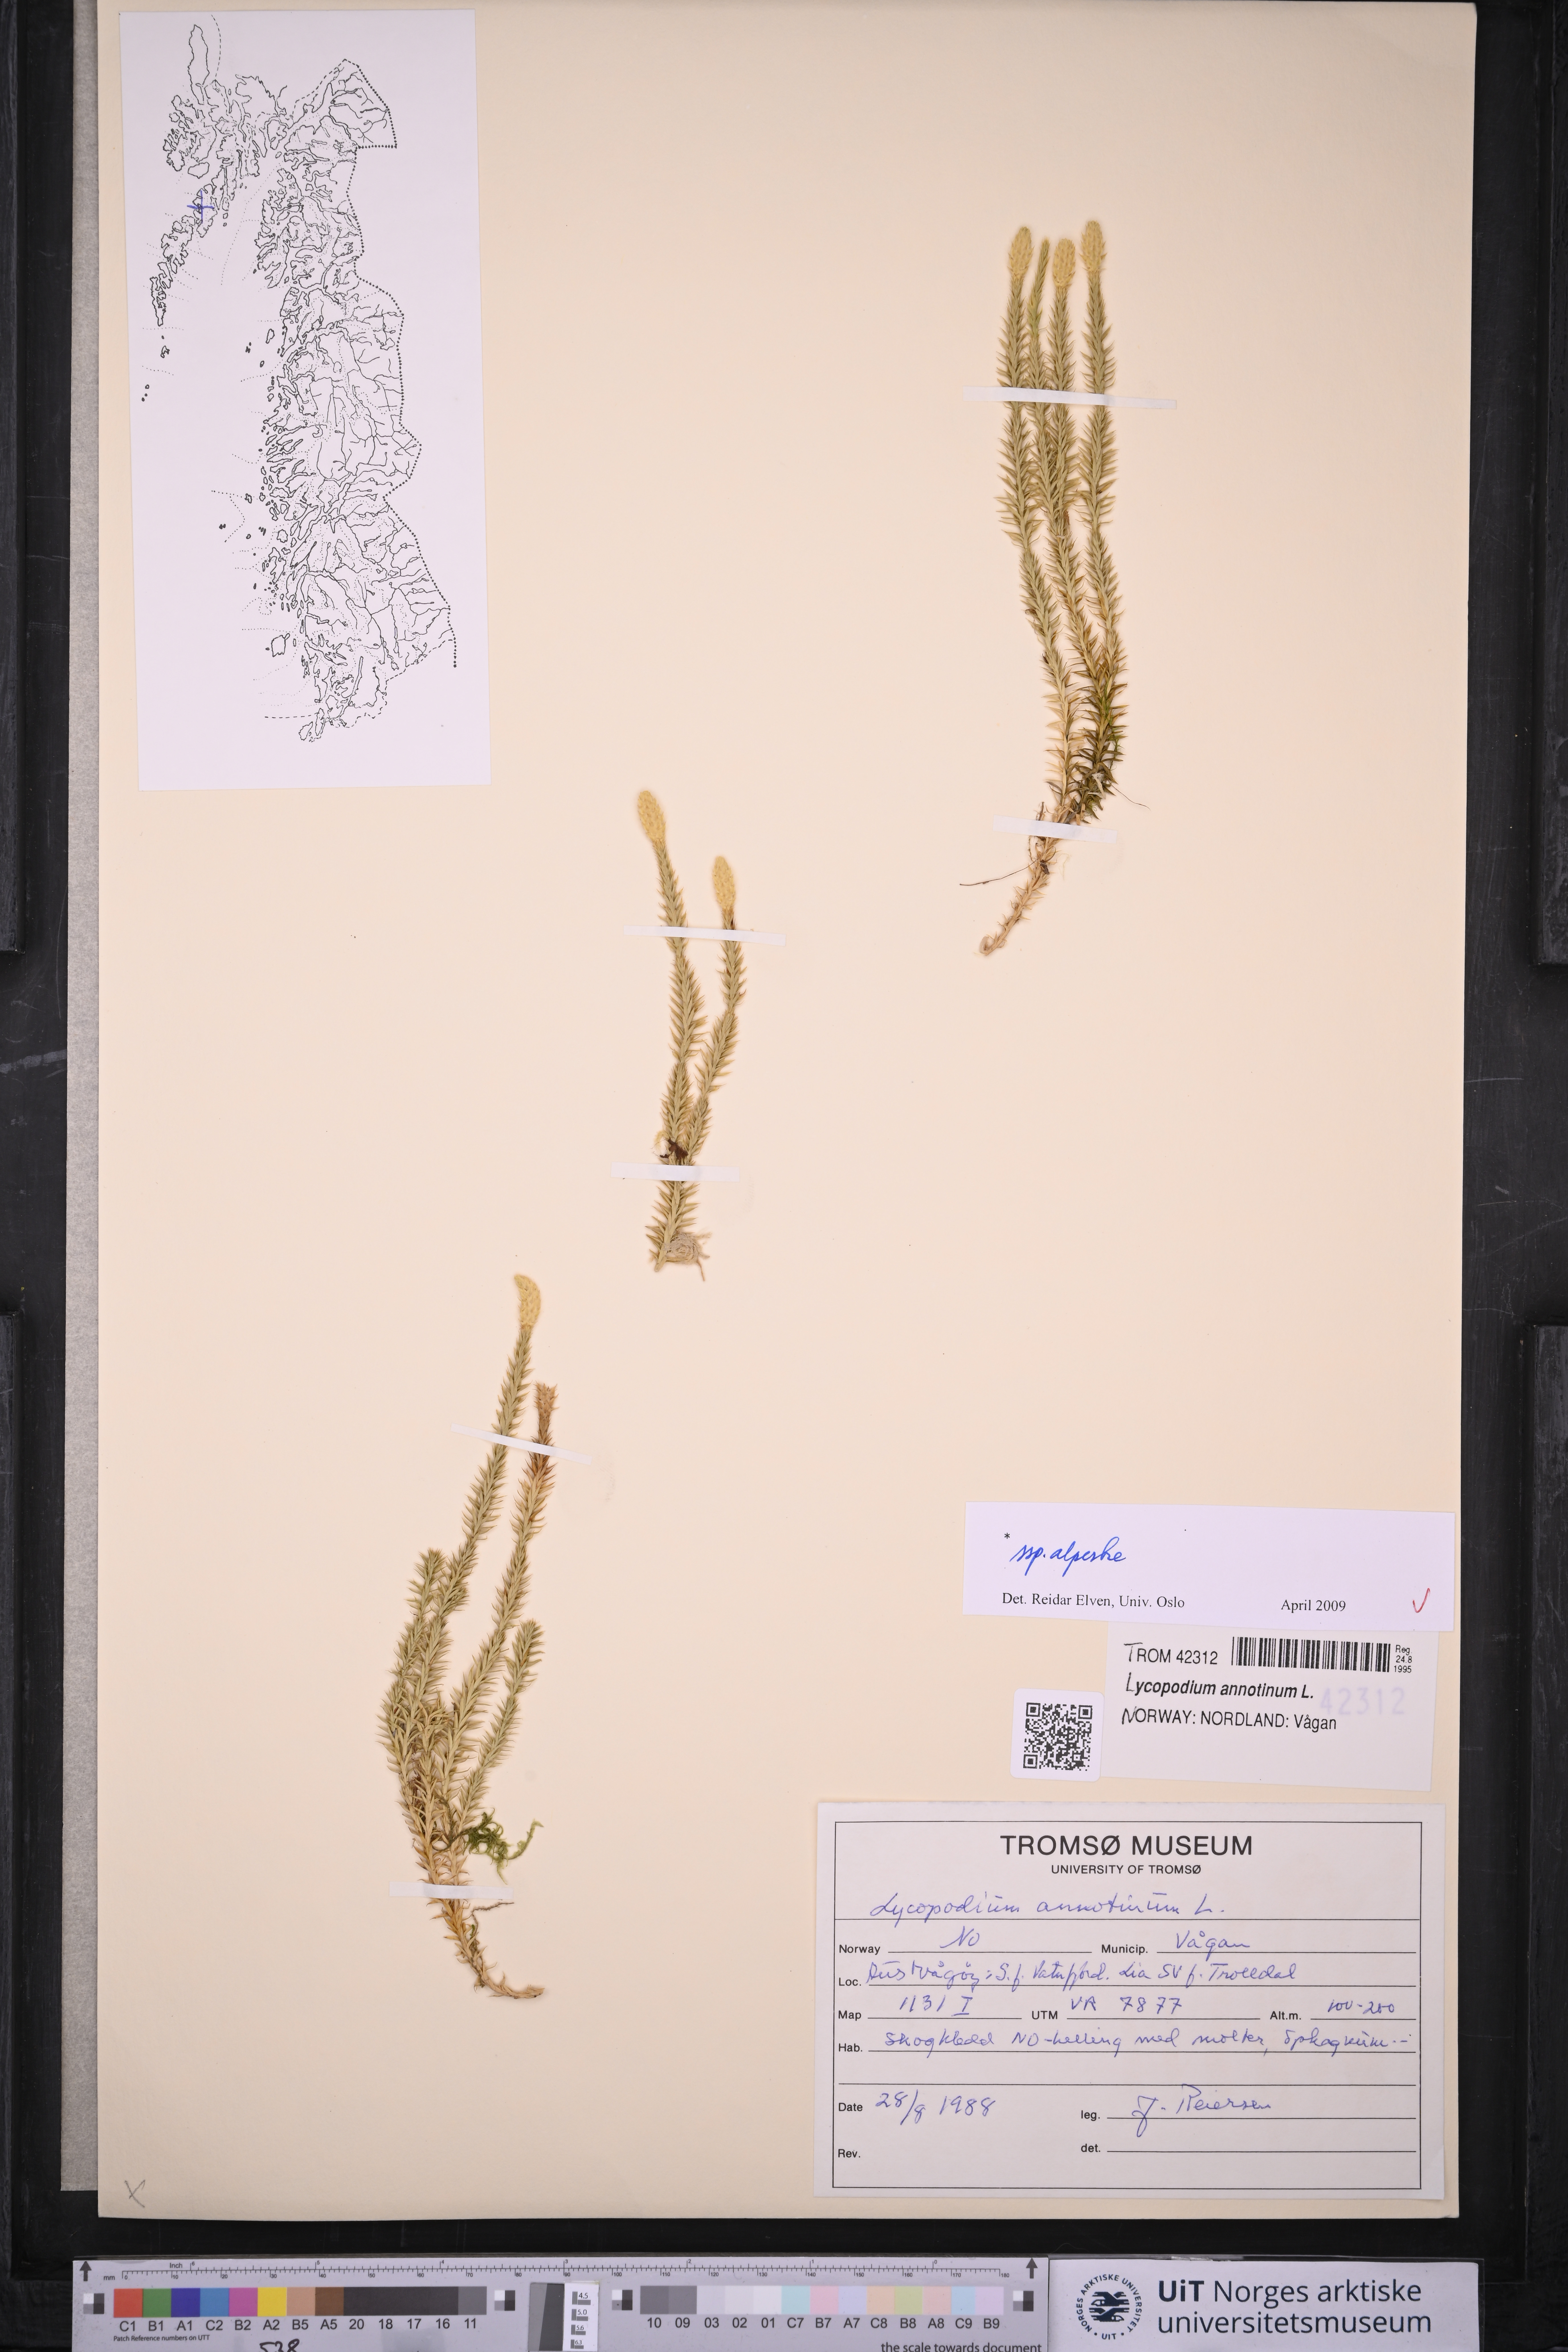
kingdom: Plantae
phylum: Tracheophyta
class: Lycopodiopsida
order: Lycopodiales
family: Lycopodiaceae
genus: Spinulum
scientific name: Spinulum annotinum
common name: Interrupted club-moss
